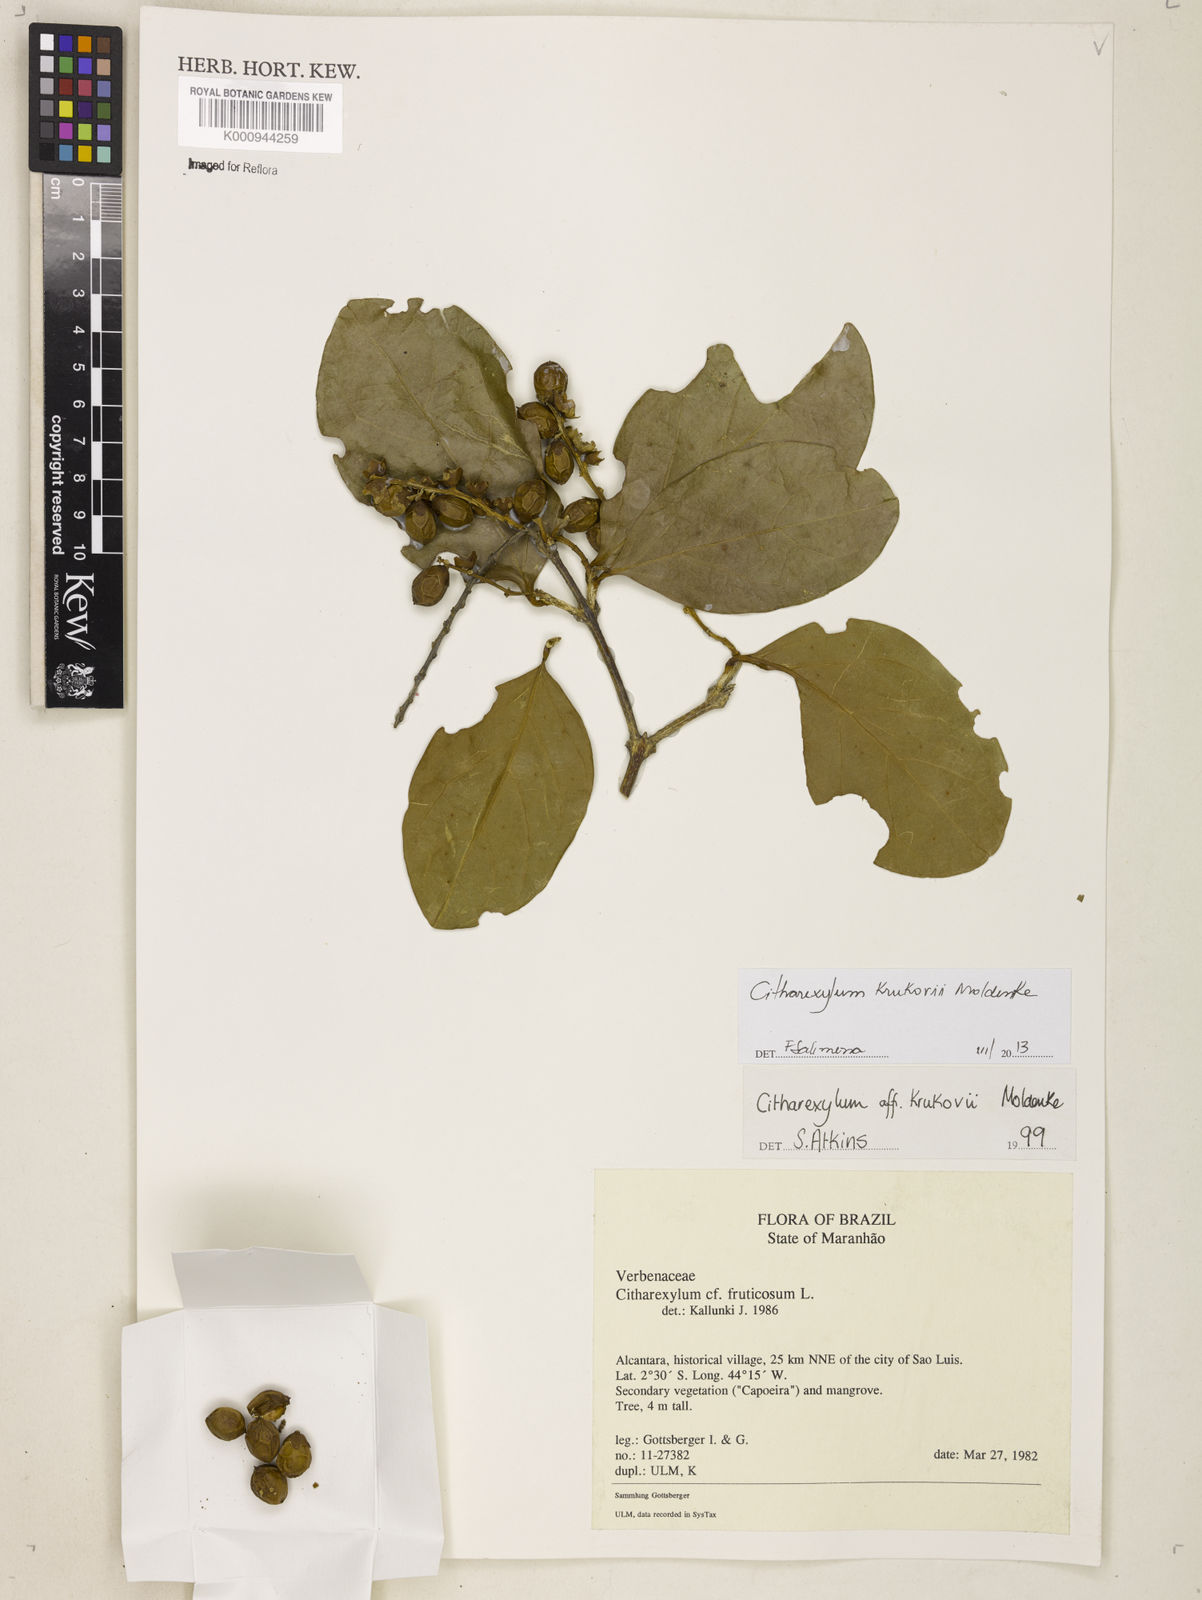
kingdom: Plantae
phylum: Tracheophyta
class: Magnoliopsida
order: Lamiales
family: Verbenaceae
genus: Citharexylum
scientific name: Citharexylum poeppigii
